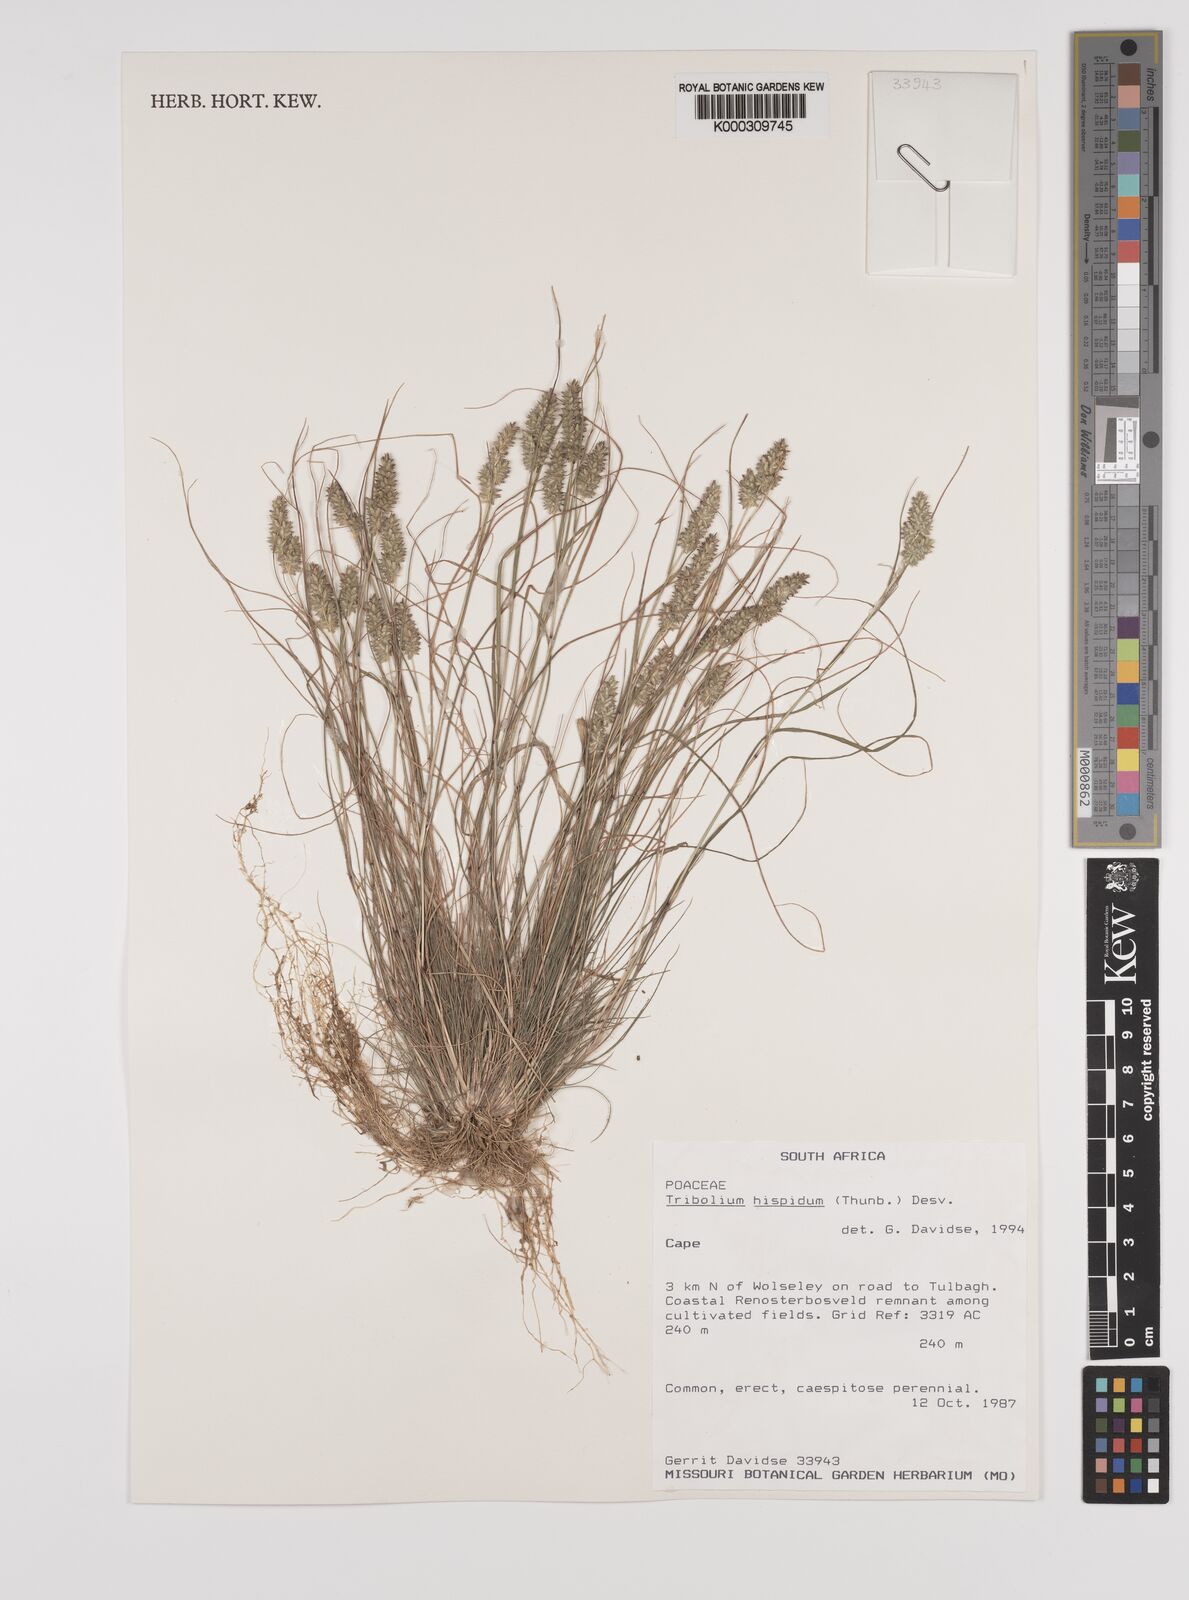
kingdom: Plantae
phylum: Tracheophyta
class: Liliopsida
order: Poales
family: Poaceae
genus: Tribolium
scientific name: Tribolium hispidum
